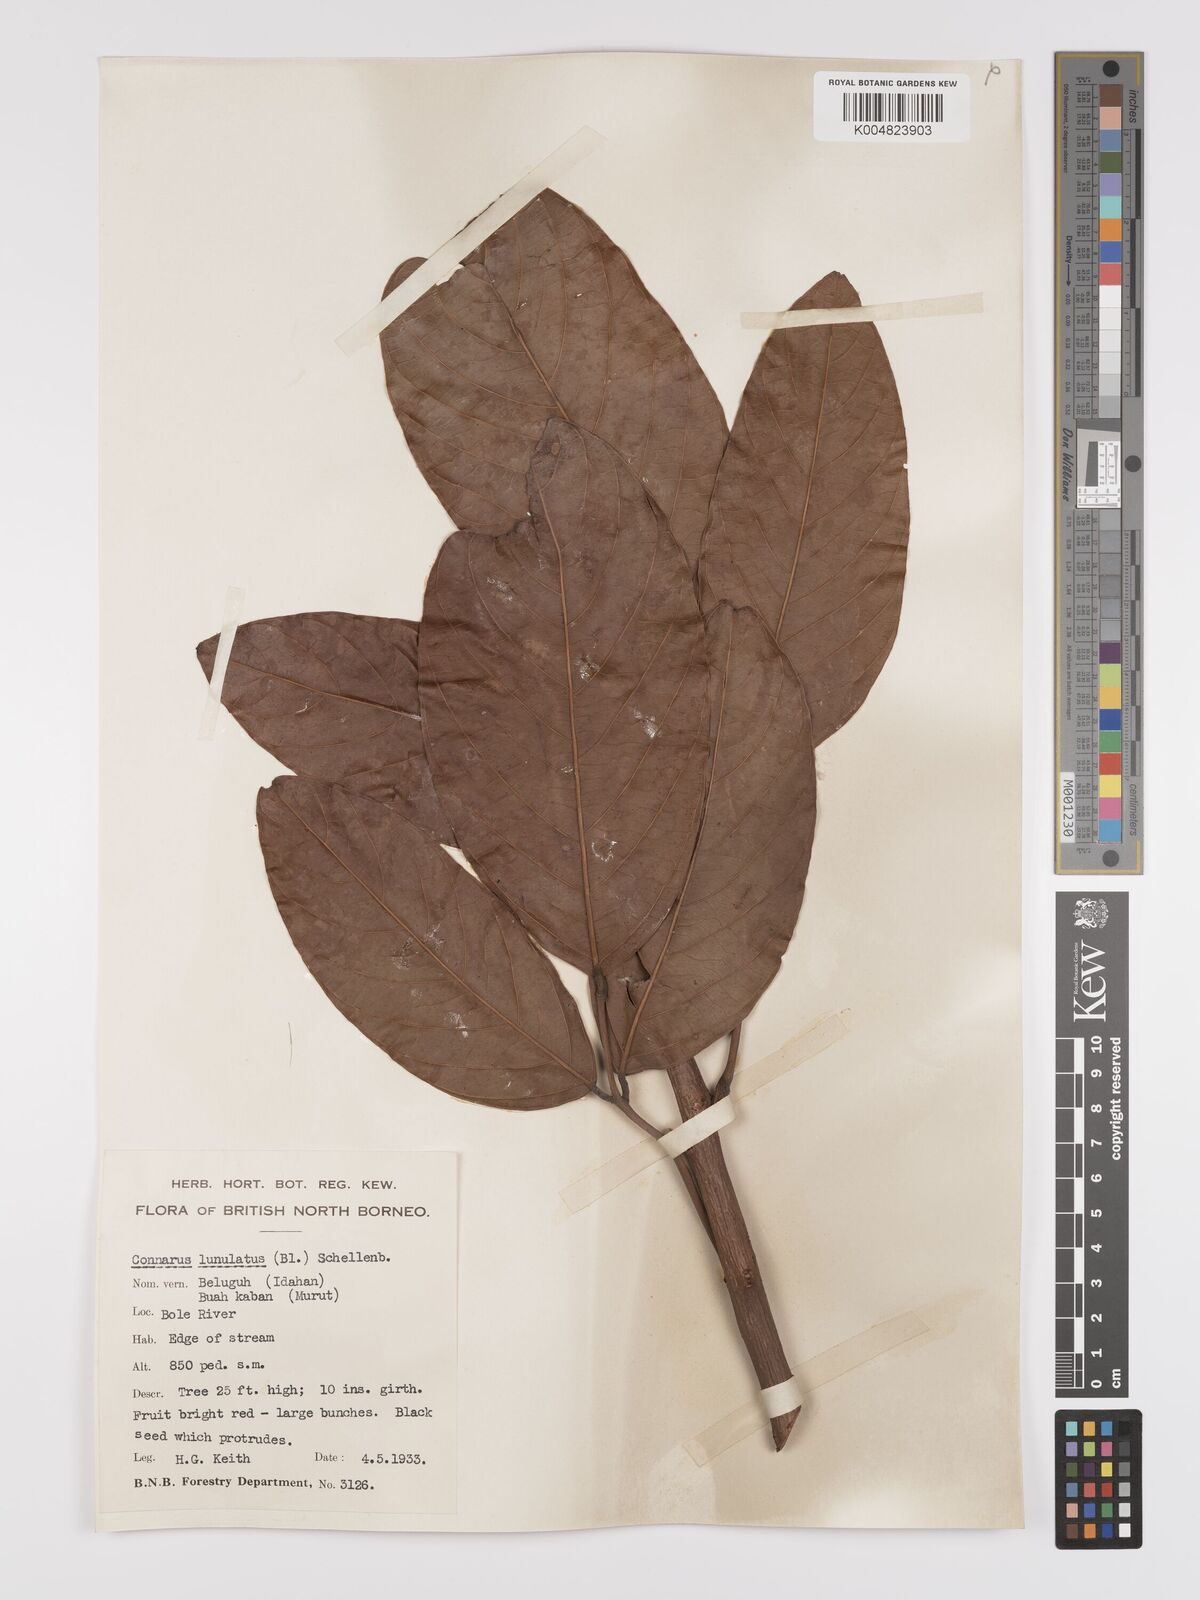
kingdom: Plantae
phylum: Tracheophyta
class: Magnoliopsida
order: Oxalidales
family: Connaraceae
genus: Connarus
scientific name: Connarus grandis
